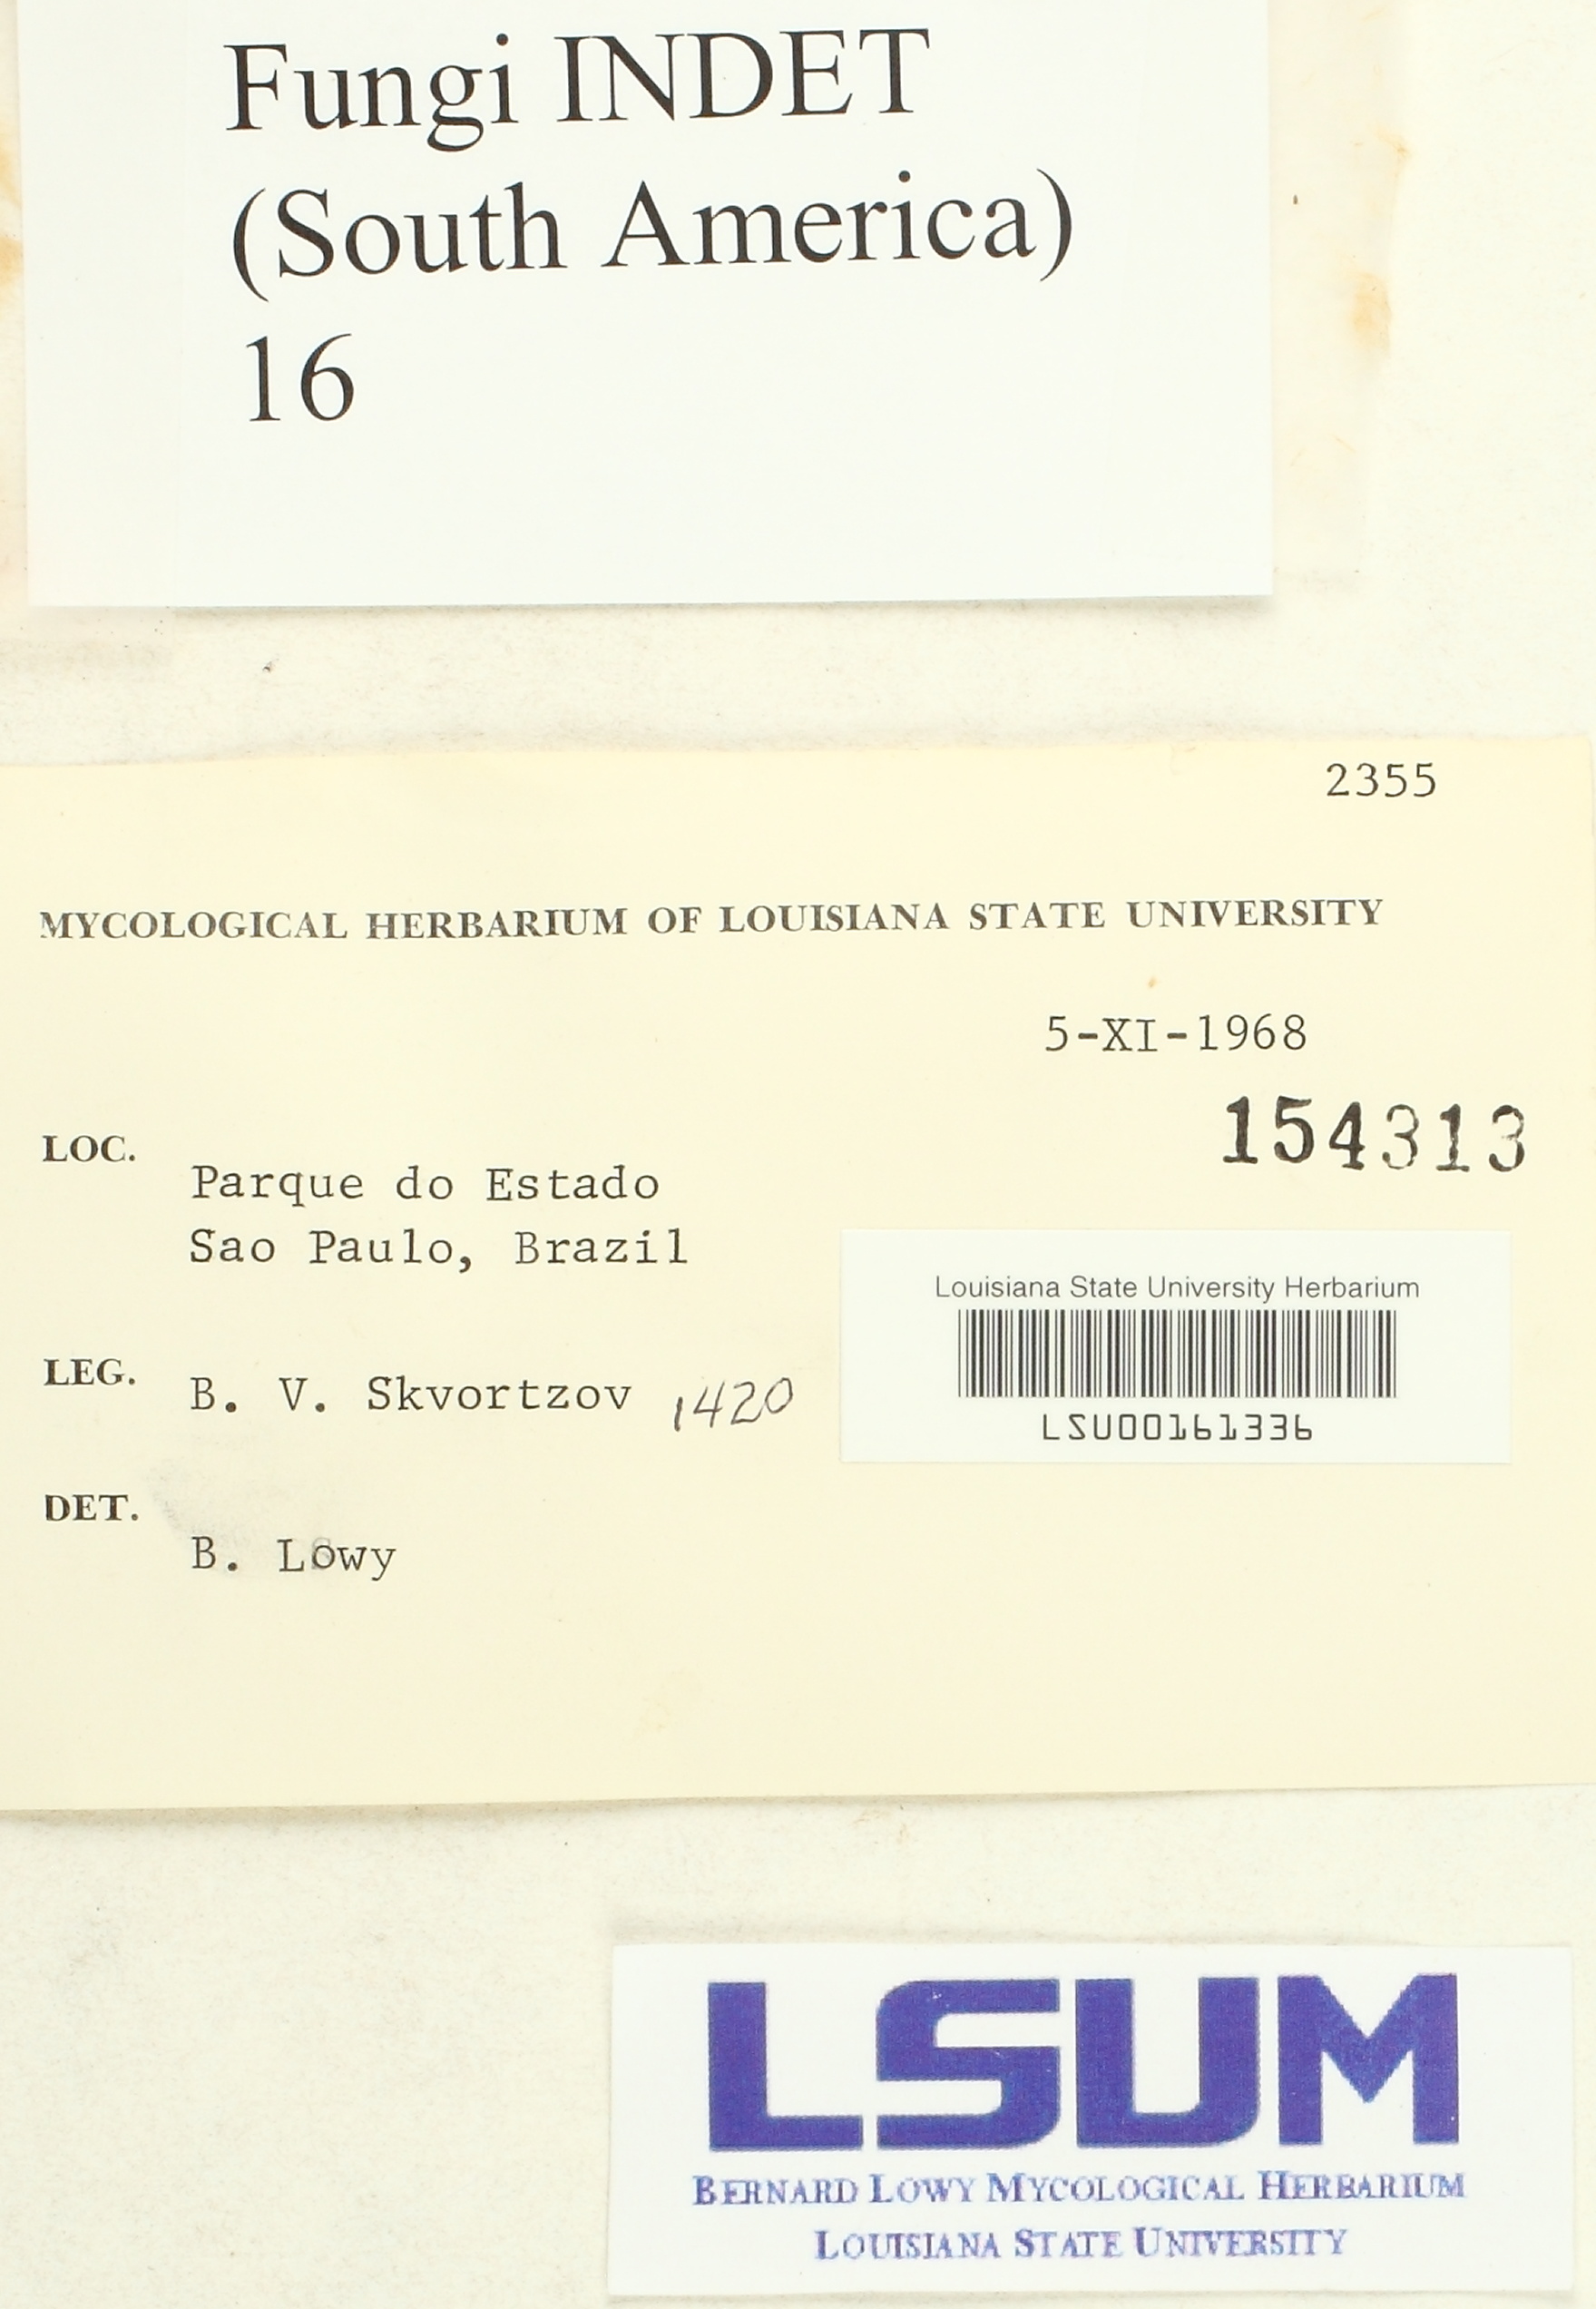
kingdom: Fungi
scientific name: Fungi
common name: Fungi
